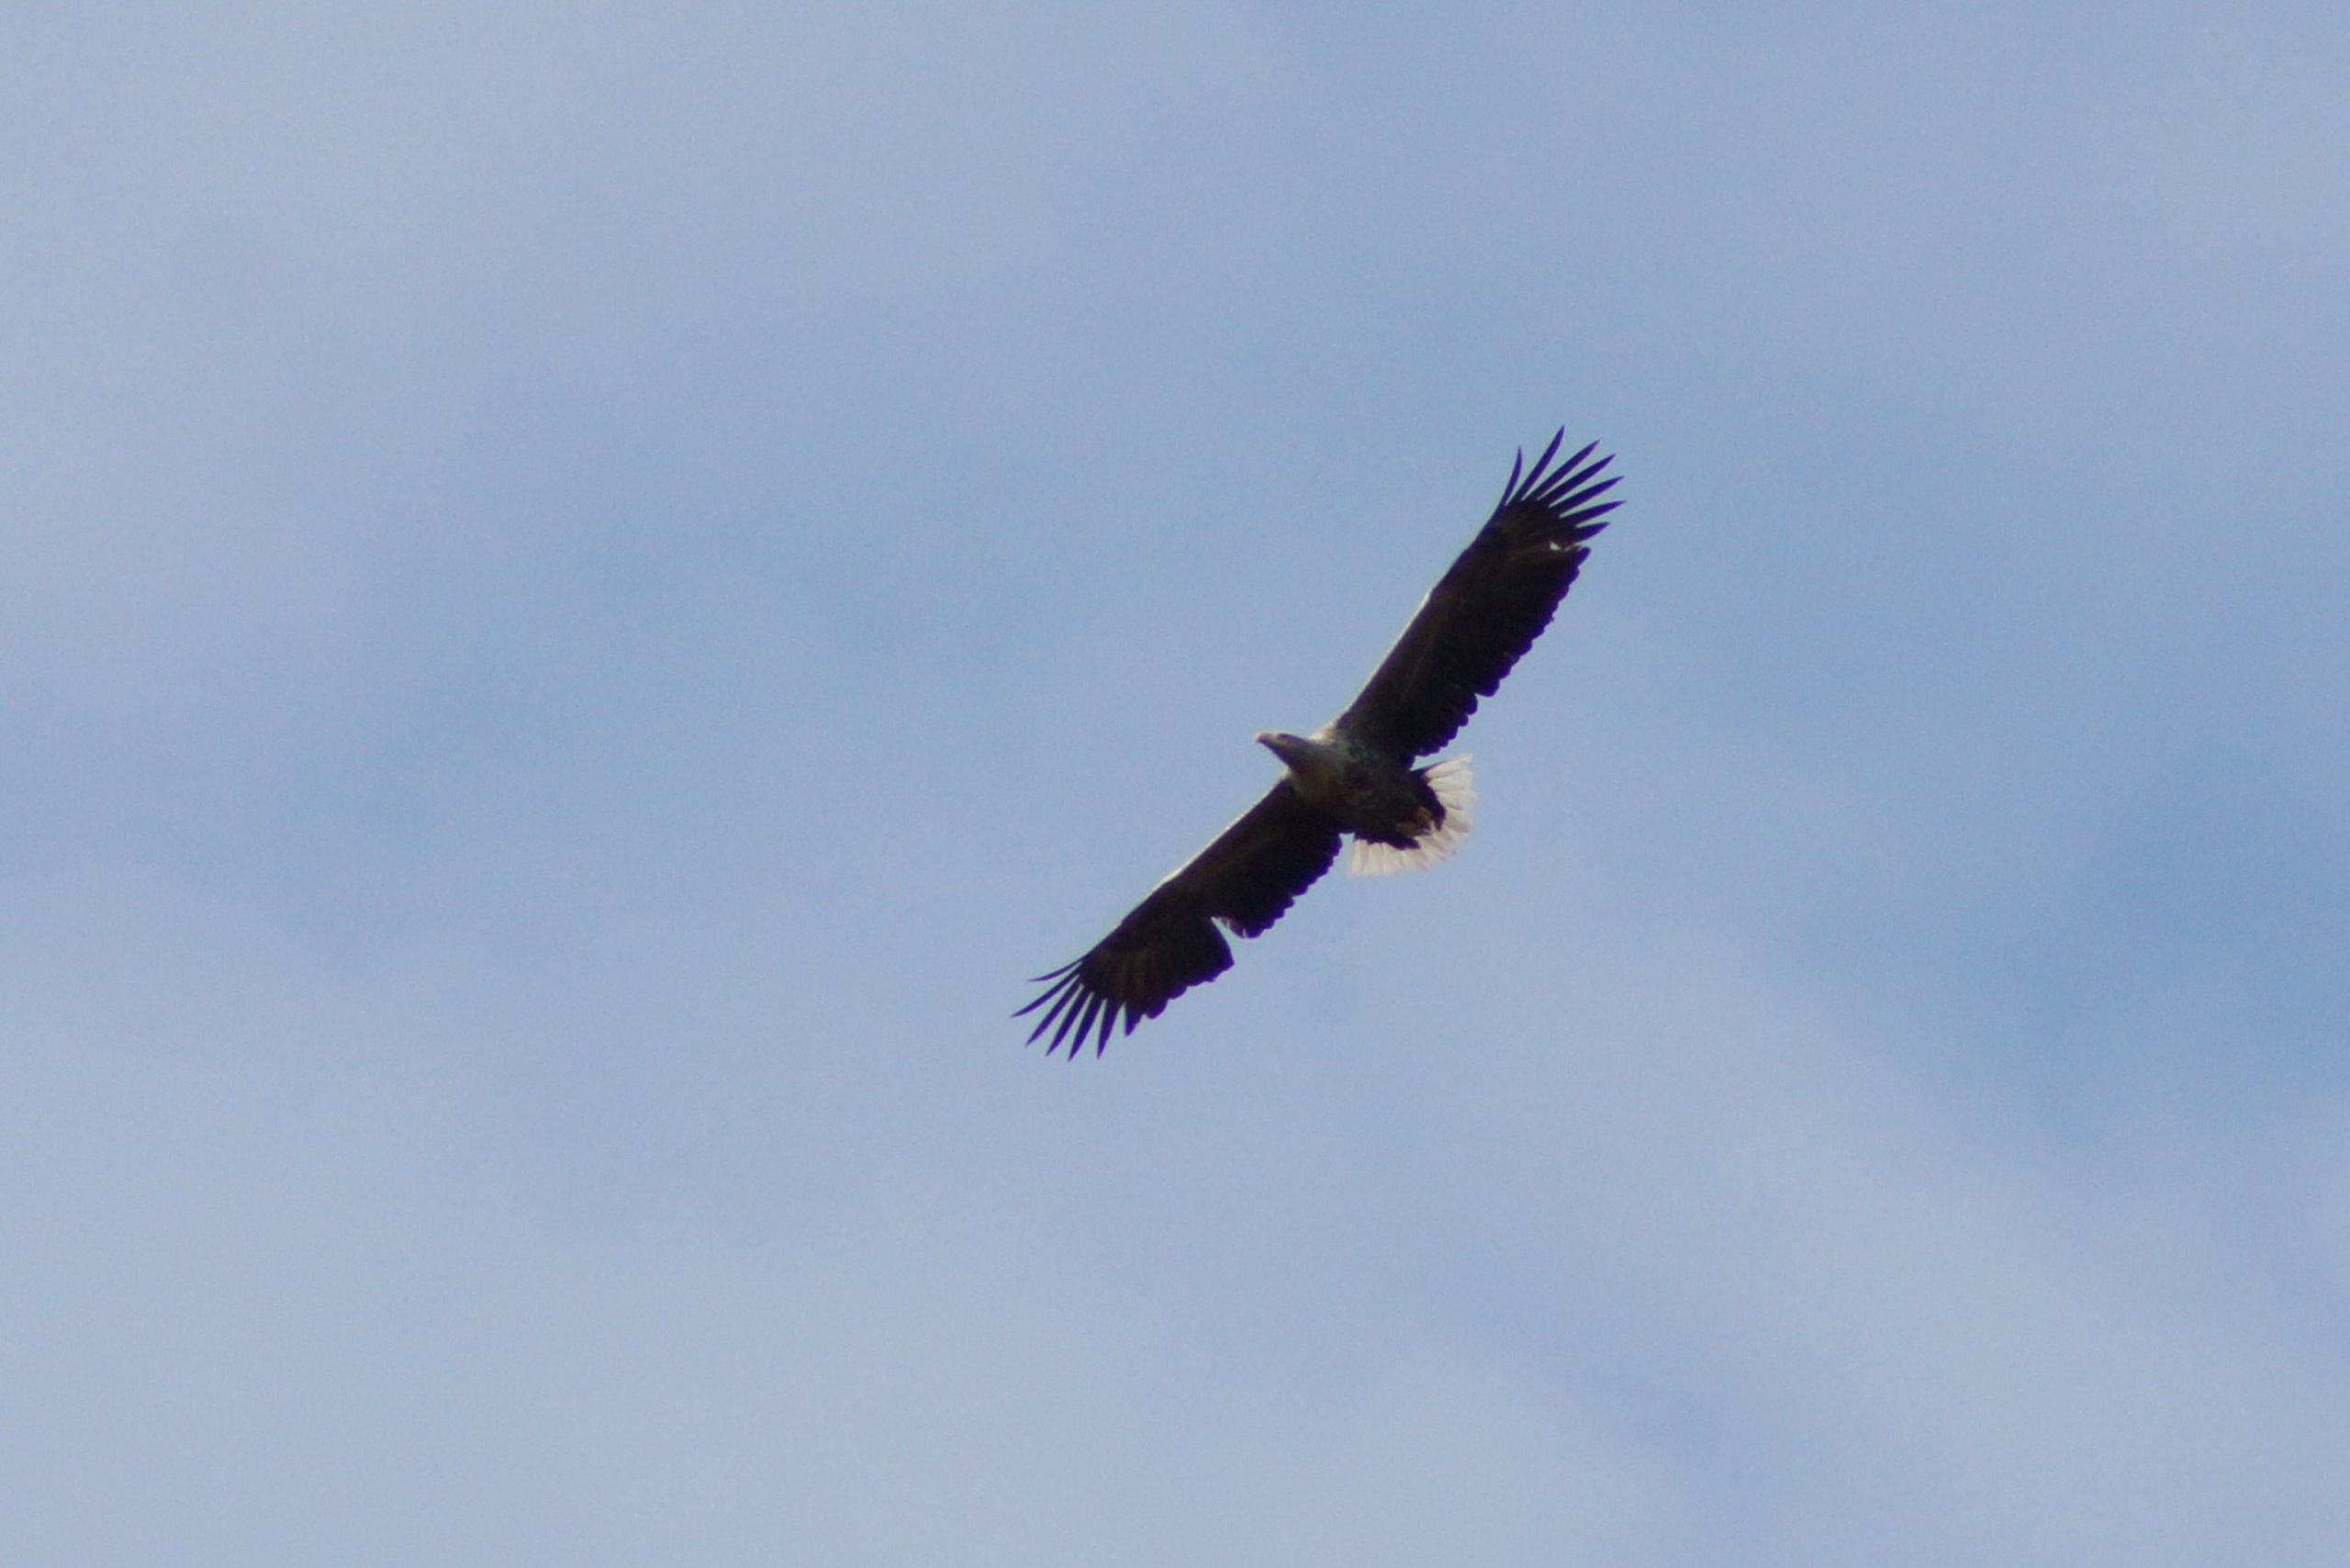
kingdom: Animalia
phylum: Chordata
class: Aves
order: Accipitriformes
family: Accipitridae
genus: Haliaeetus
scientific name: Haliaeetus albicilla
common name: Havørn
